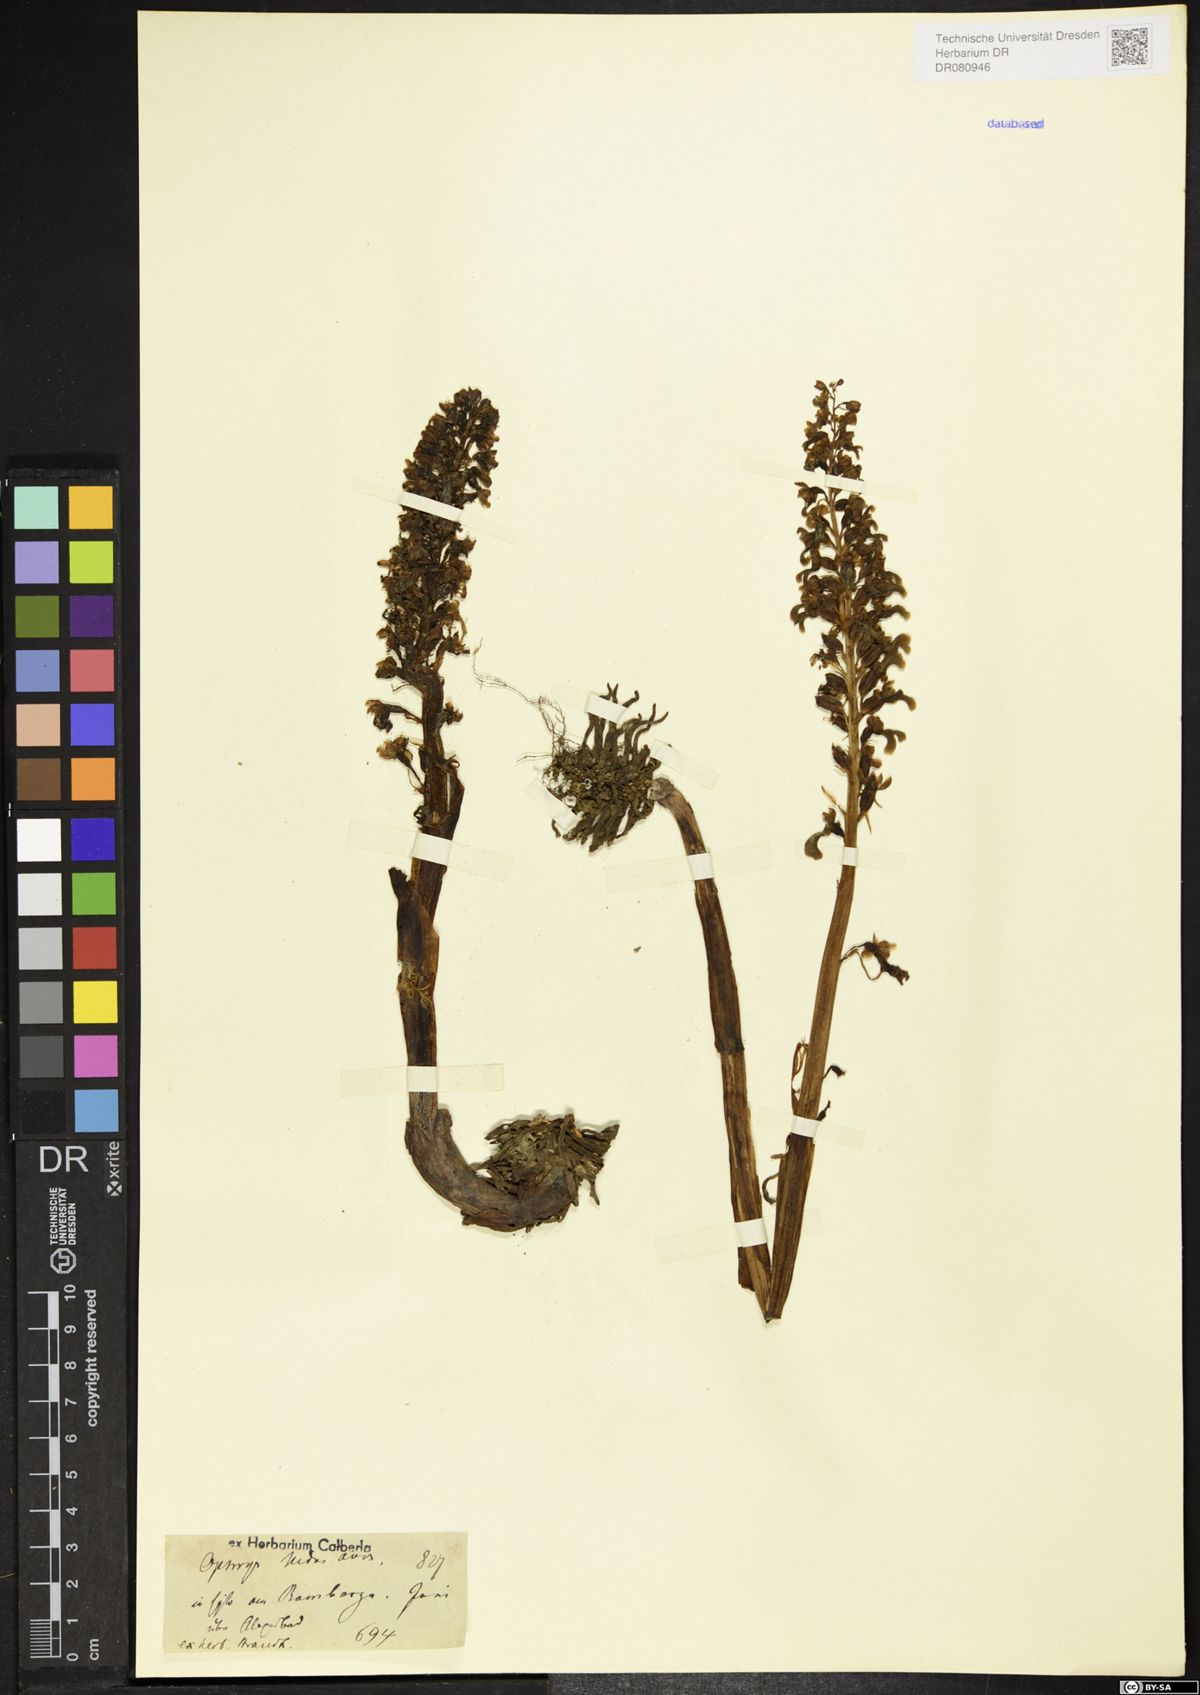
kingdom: Plantae
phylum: Tracheophyta
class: Liliopsida
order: Asparagales
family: Orchidaceae
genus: Neottia
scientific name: Neottia nidus-avis
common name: Bird's-nest orchid
